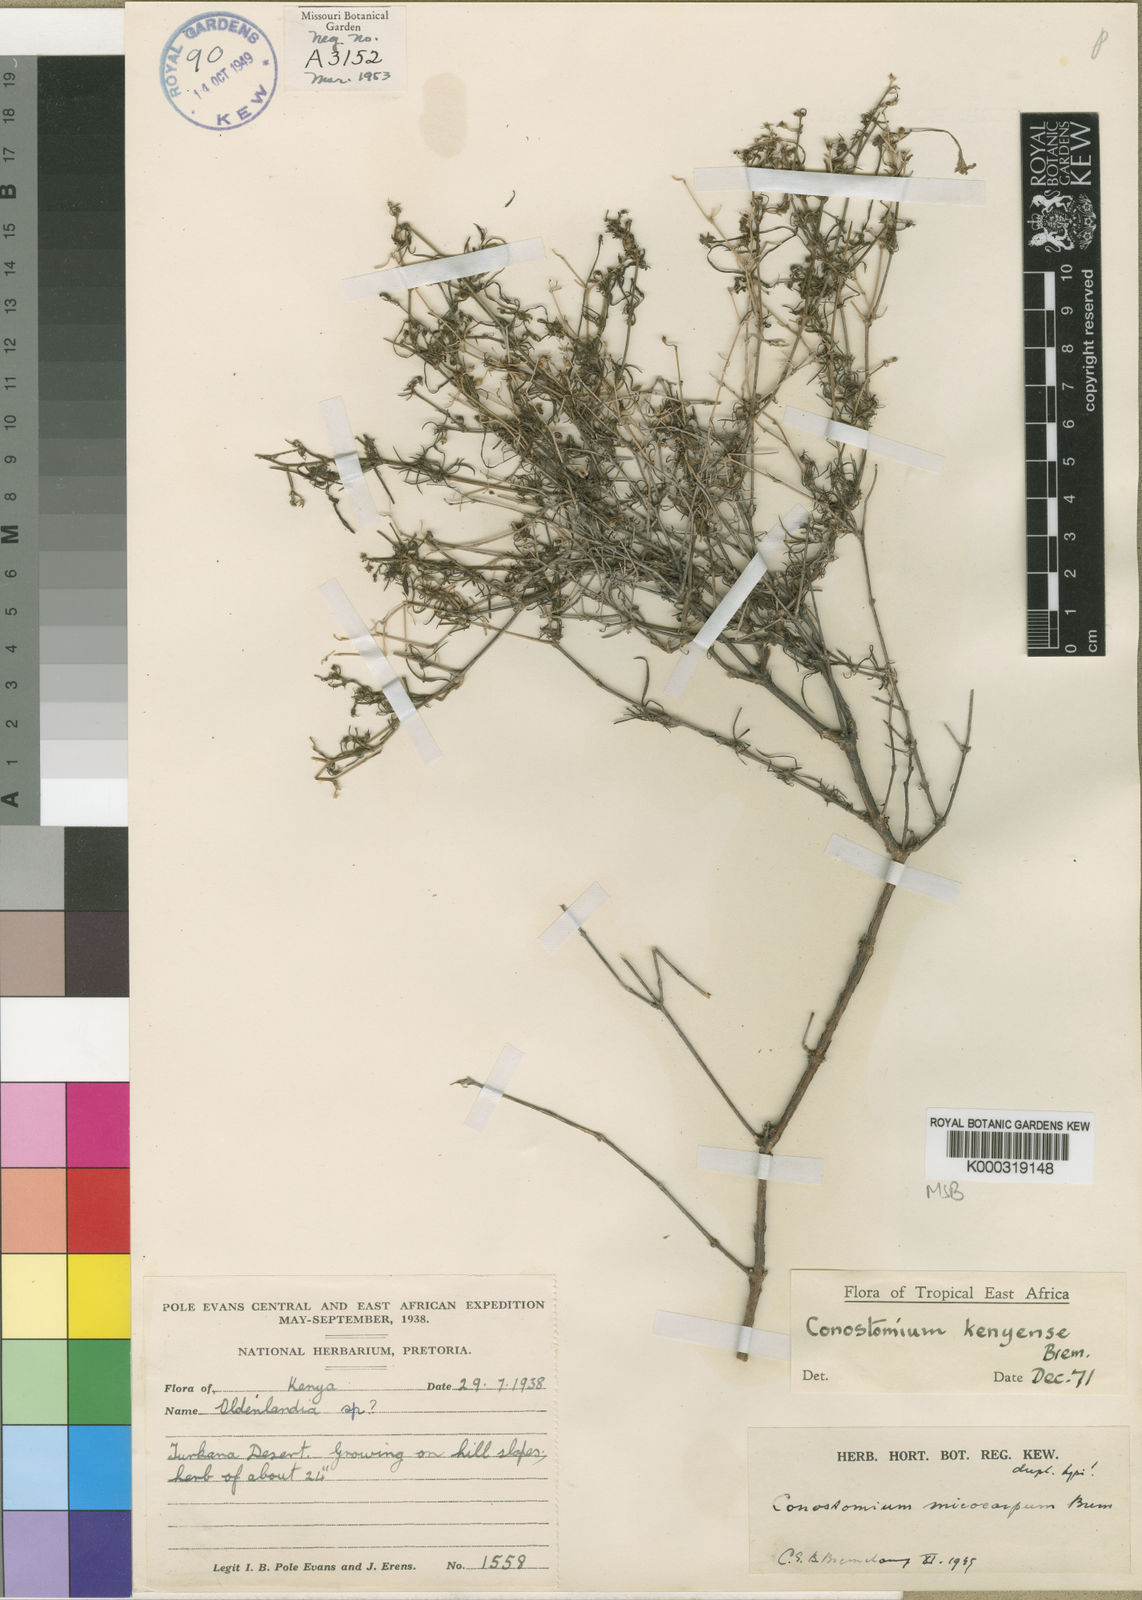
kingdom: Plantae
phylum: Tracheophyta
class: Magnoliopsida
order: Gentianales
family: Rubiaceae
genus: Conostomium
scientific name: Conostomium longitubum
